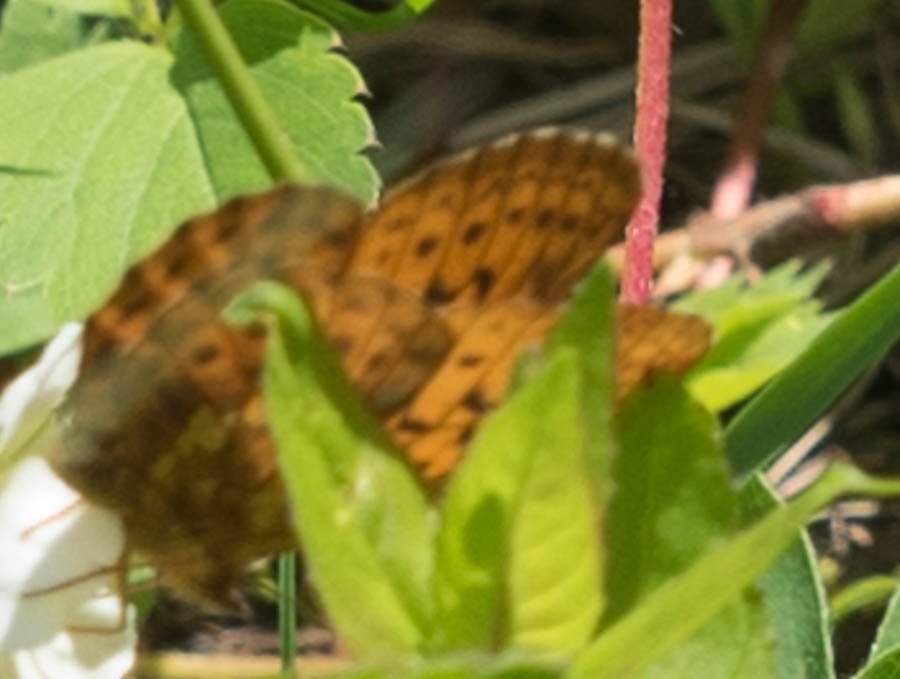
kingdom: Animalia
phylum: Arthropoda
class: Insecta
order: Lepidoptera
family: Nymphalidae
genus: Boloria
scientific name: Boloria epithore
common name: Pacific Fritillary
